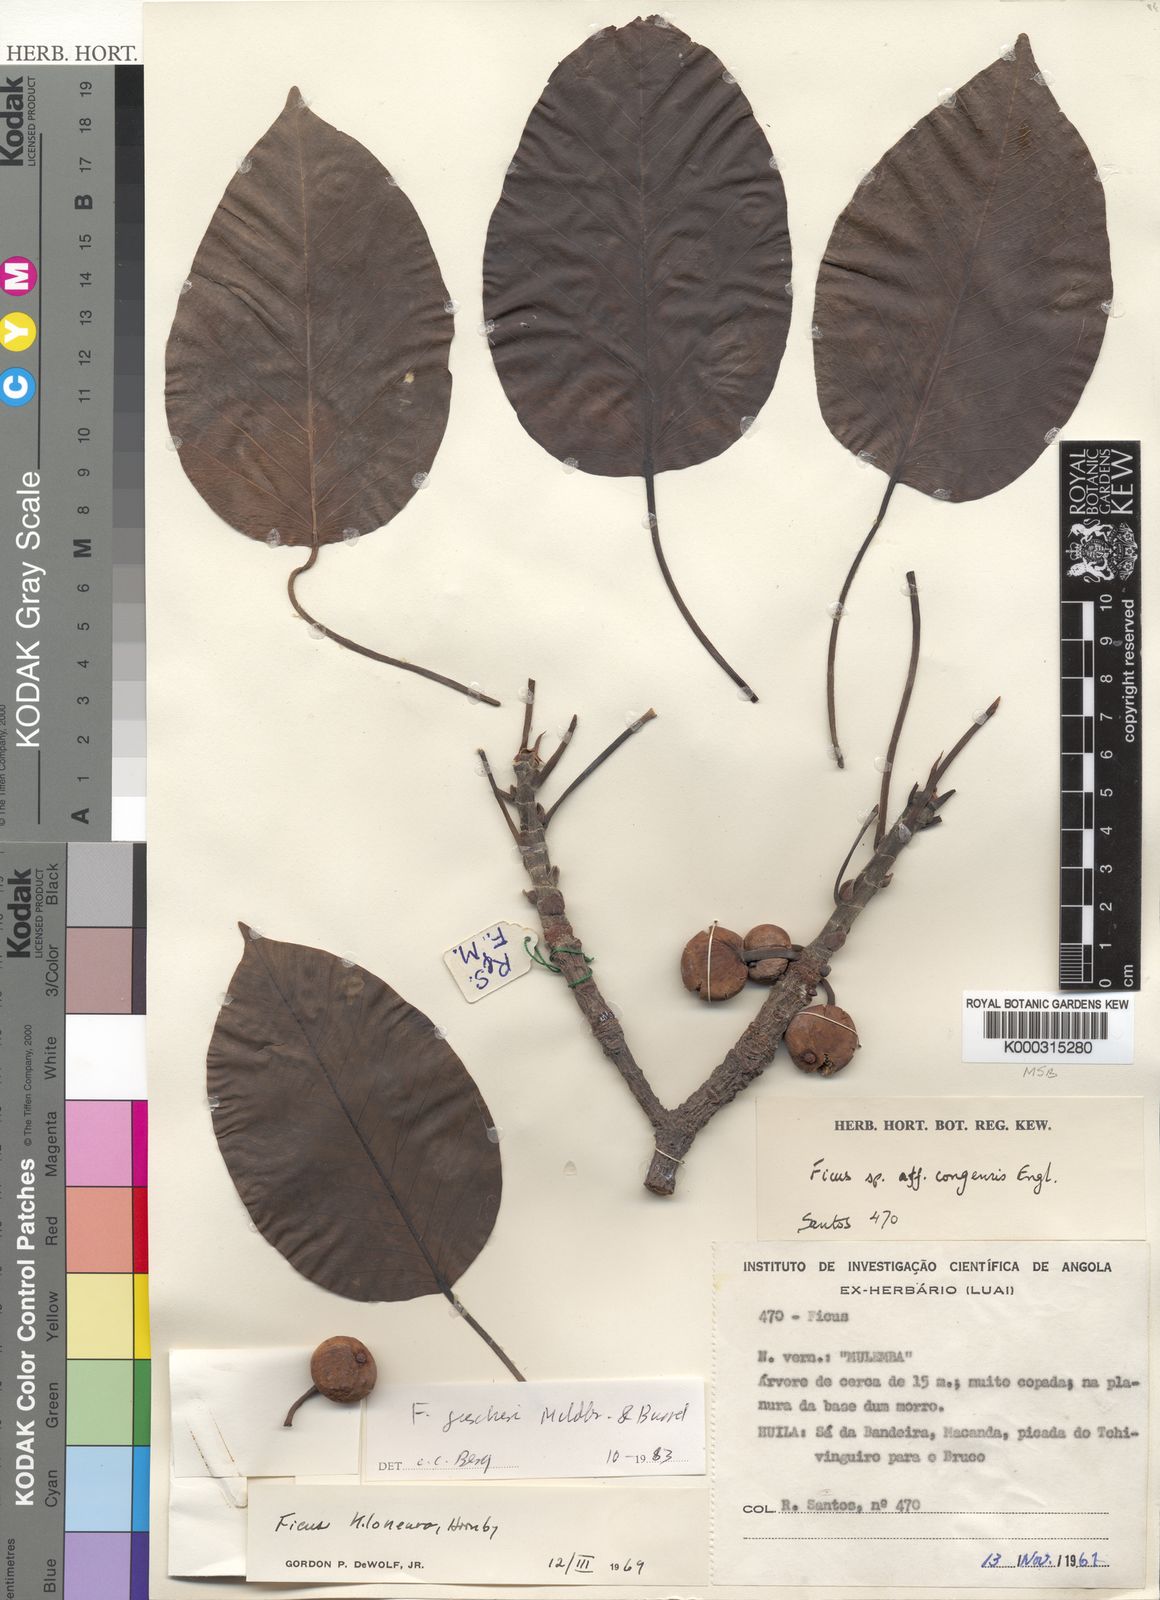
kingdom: Plantae
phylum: Tracheophyta
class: Magnoliopsida
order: Rosales
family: Moraceae
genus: Ficus
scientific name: Ficus fischeri
